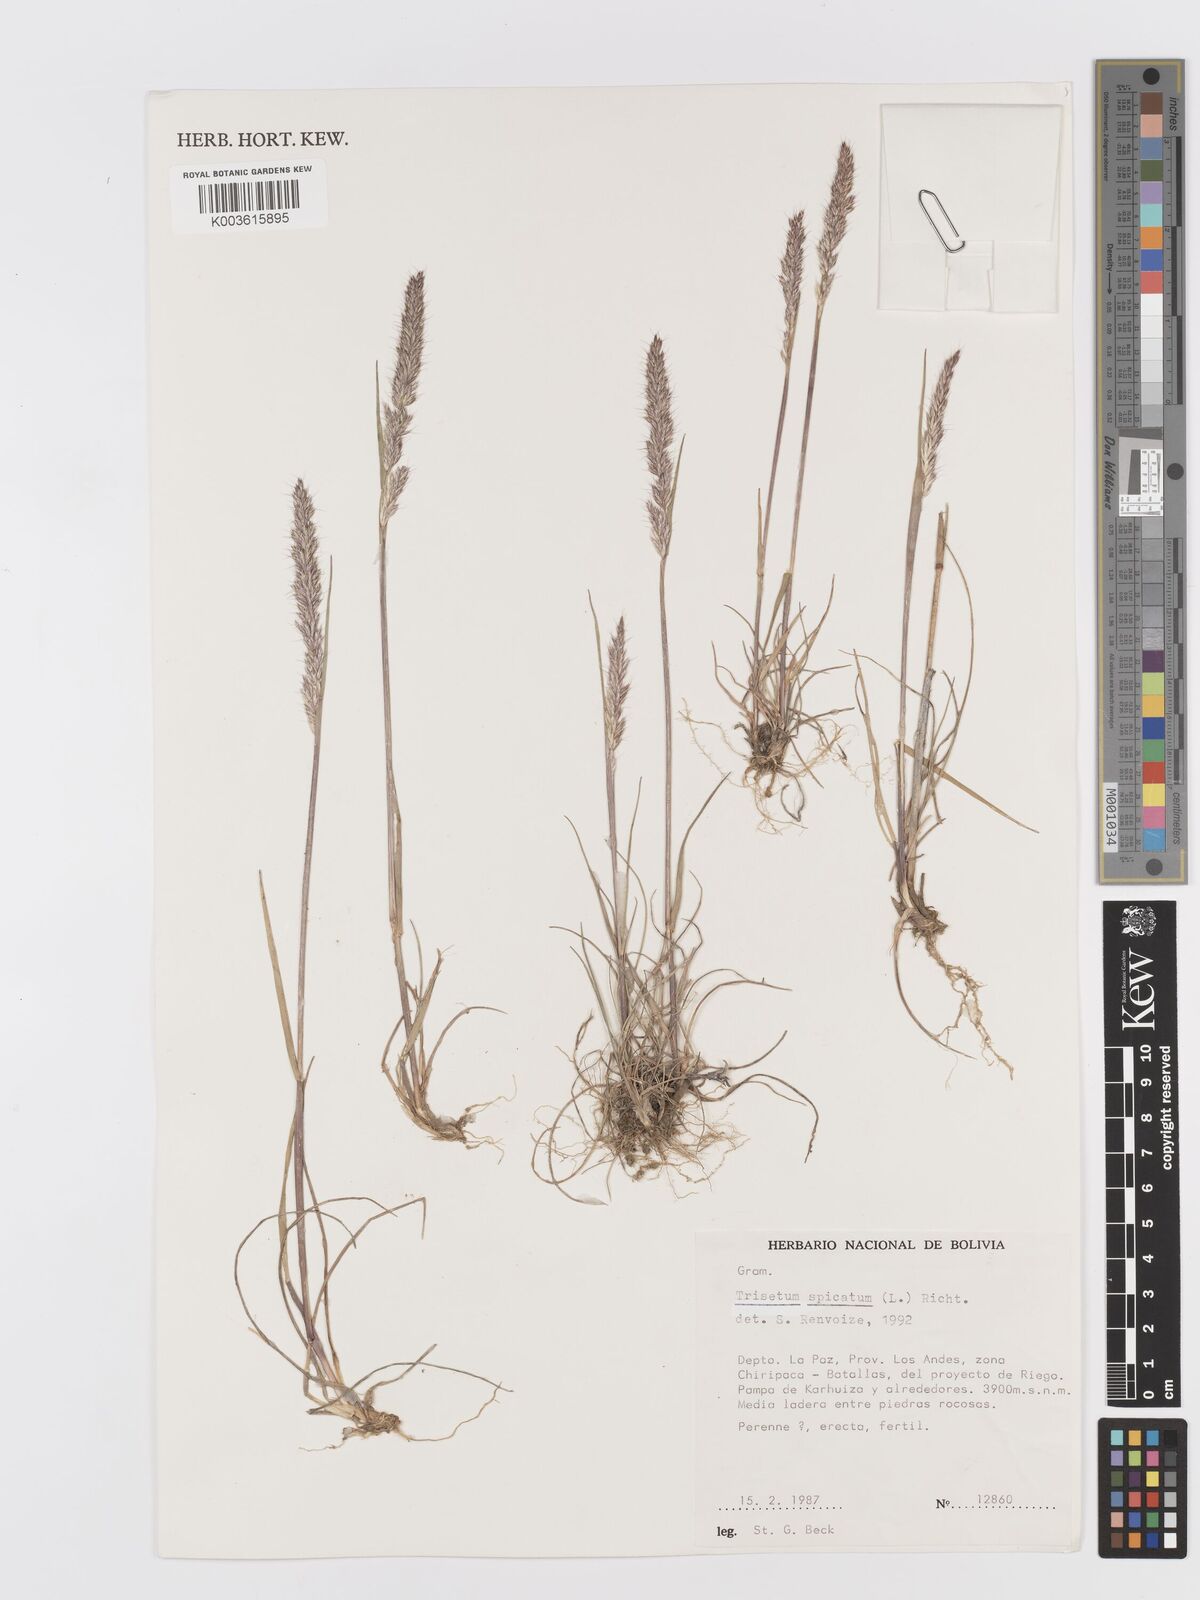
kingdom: Plantae
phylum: Tracheophyta
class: Liliopsida
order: Poales
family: Poaceae
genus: Koeleria
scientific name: Koeleria spicata
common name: Mountain trisetum
